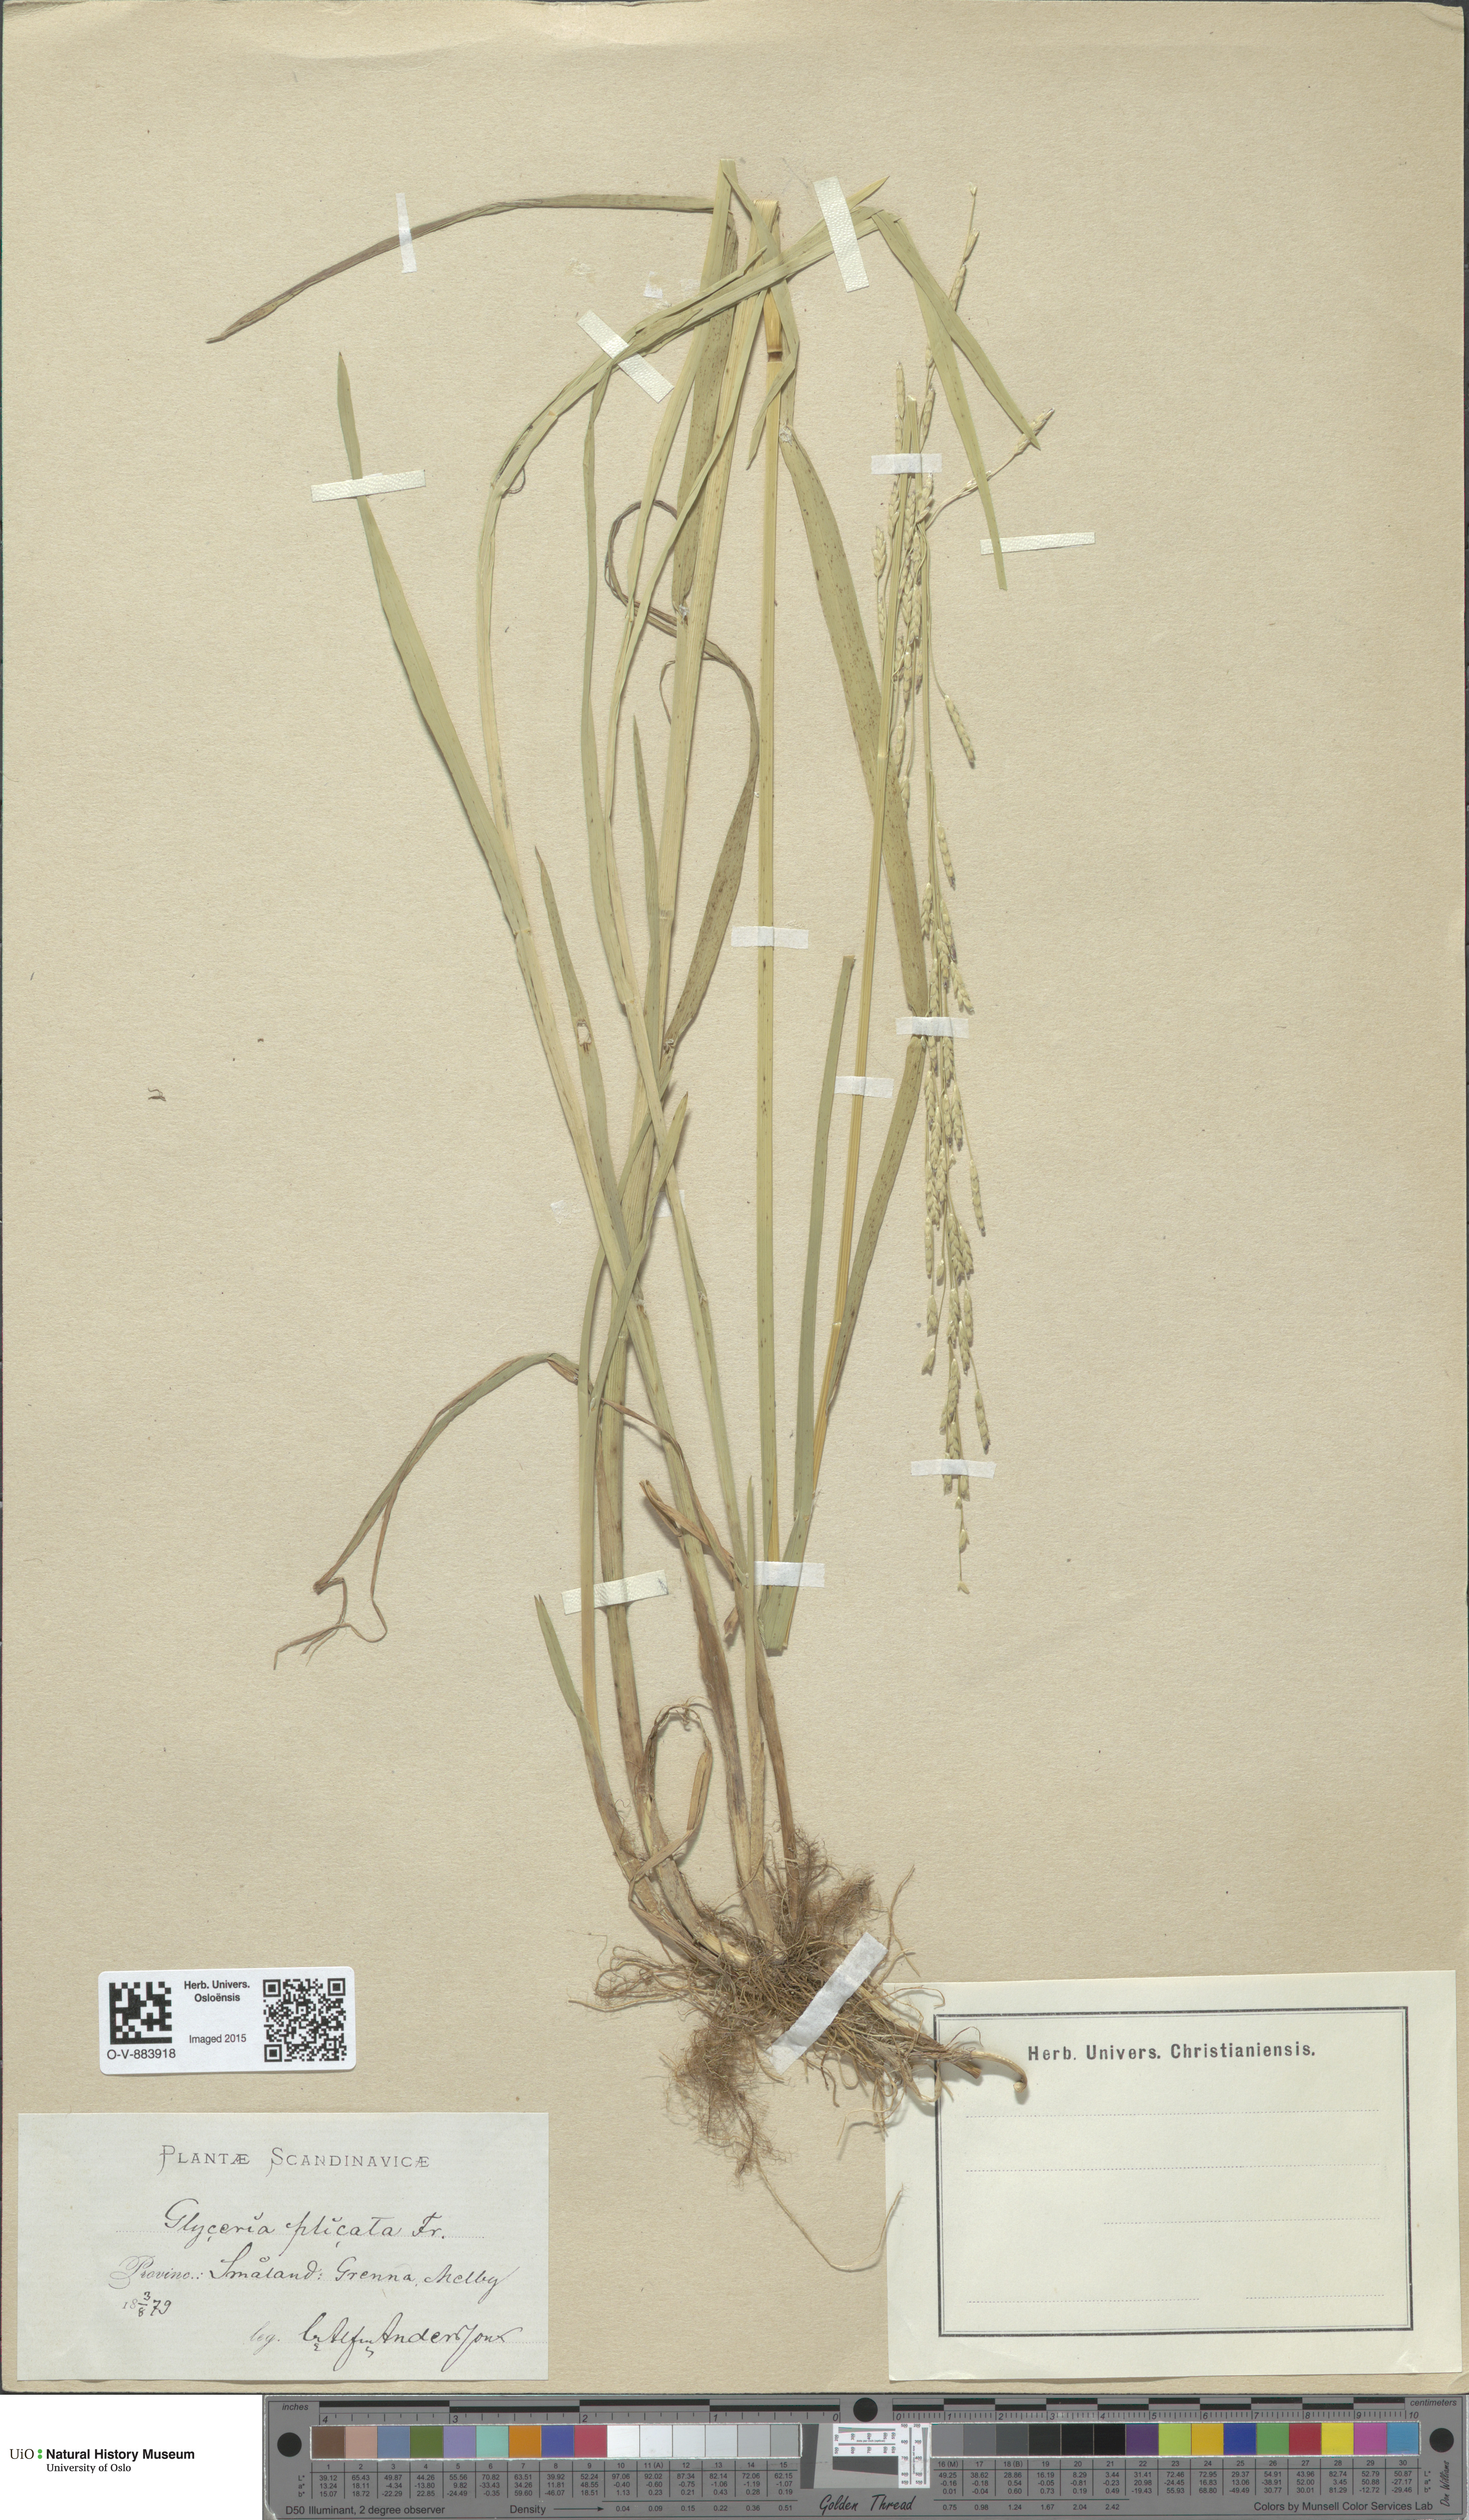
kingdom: Plantae
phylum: Tracheophyta
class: Liliopsida
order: Poales
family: Poaceae
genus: Glyceria
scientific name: Glyceria notata
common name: Plicate sweet-grass
